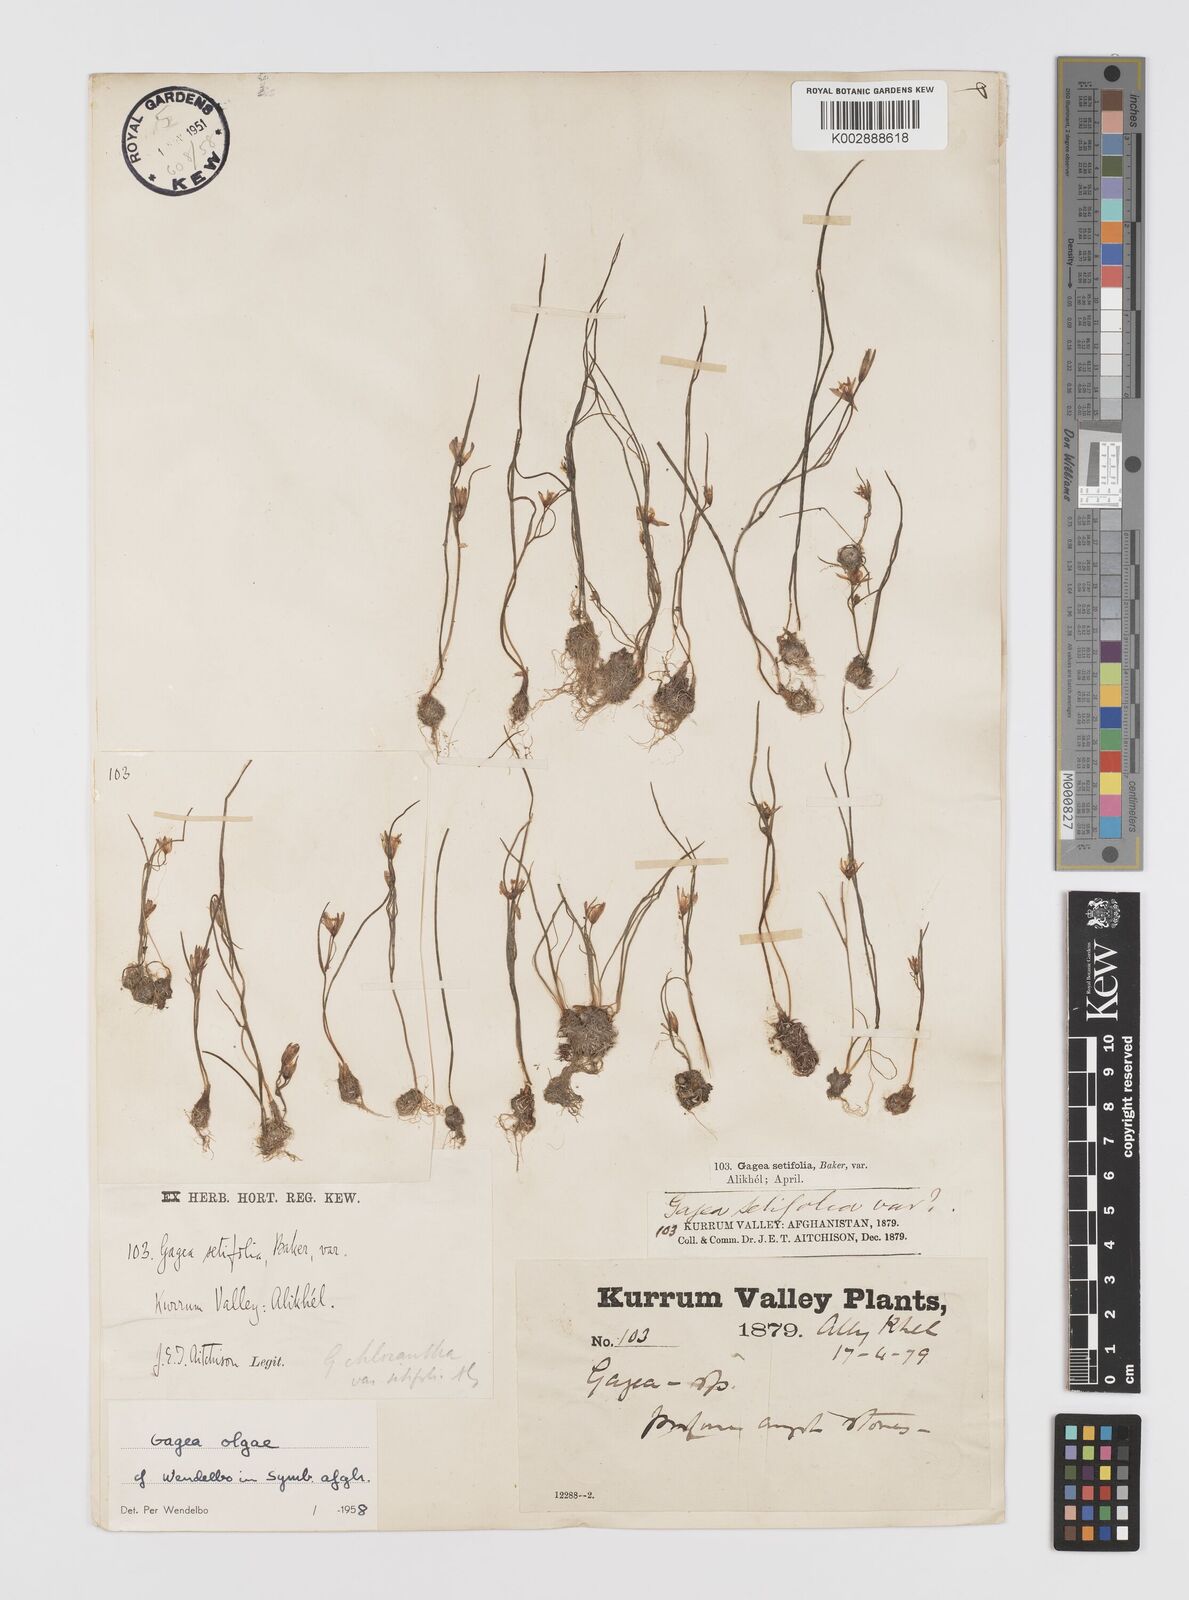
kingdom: Plantae
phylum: Tracheophyta
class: Liliopsida
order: Liliales
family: Liliaceae
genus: Gagea
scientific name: Gagea olgae
